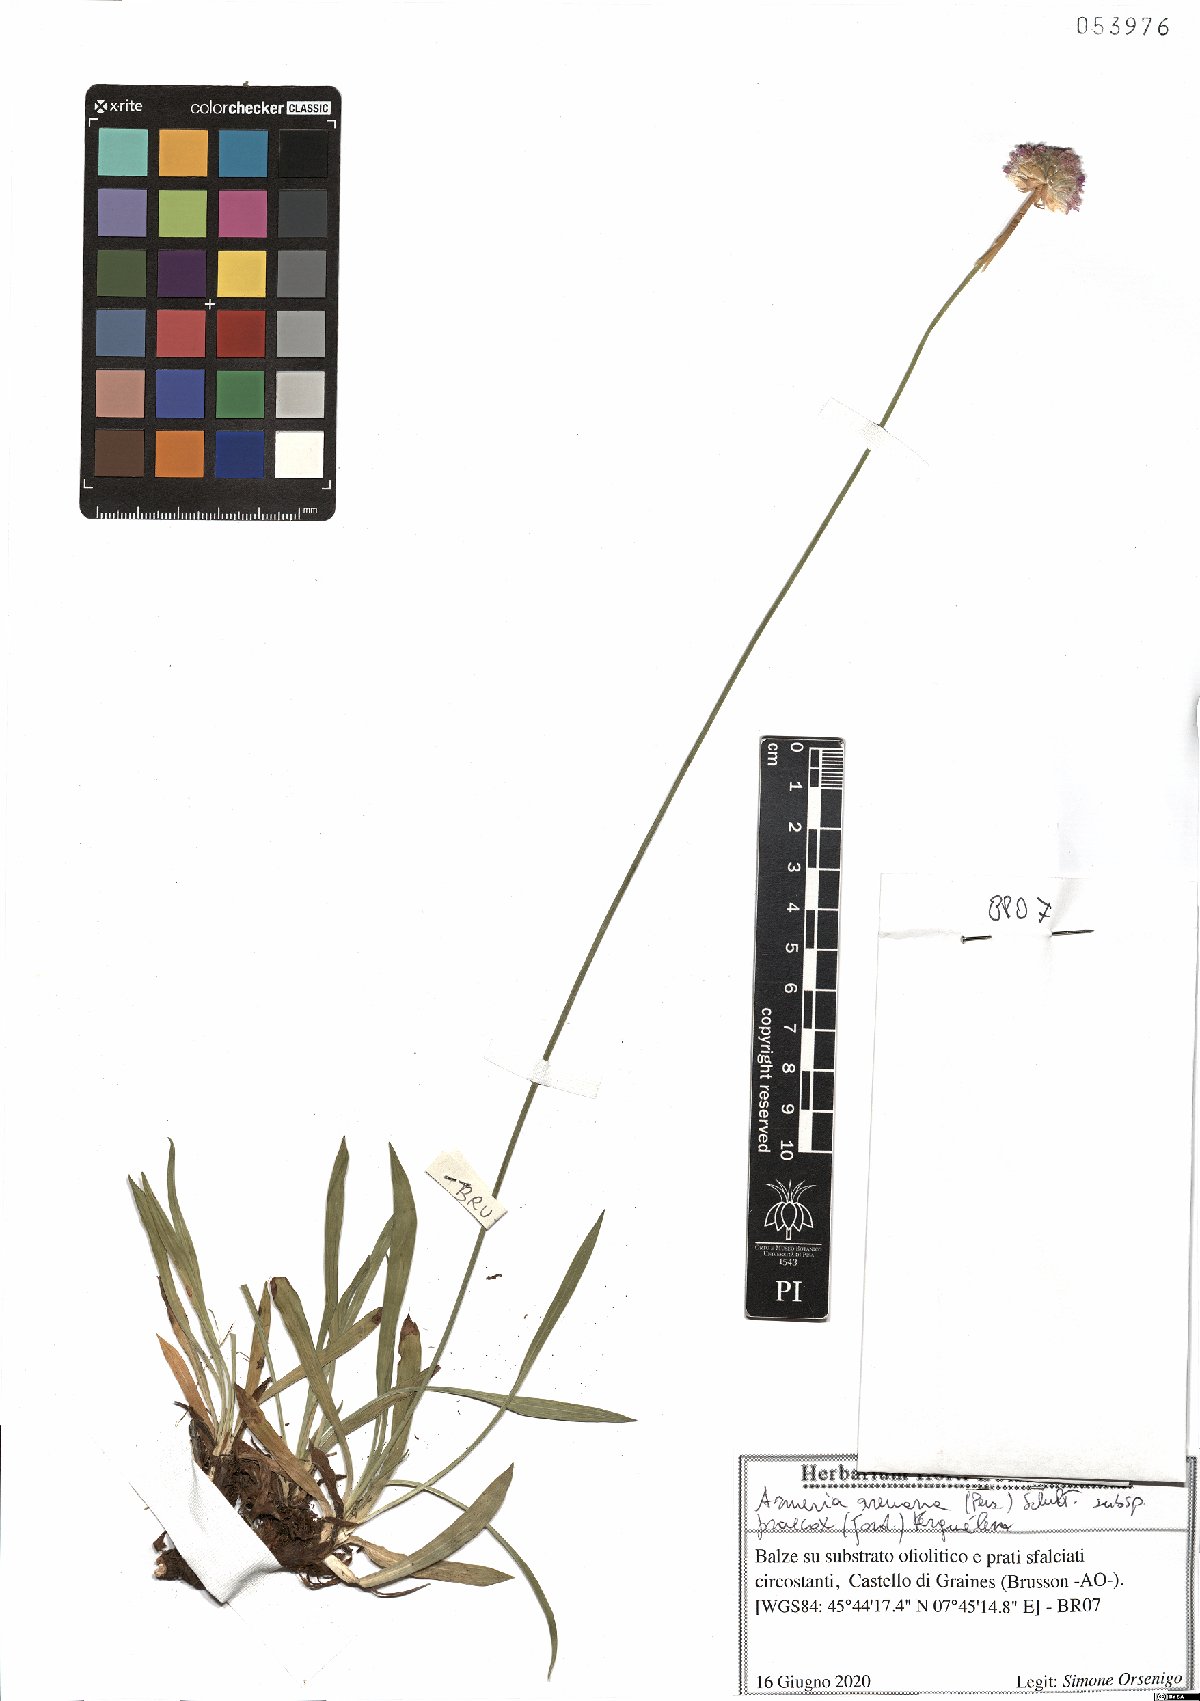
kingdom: Plantae
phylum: Tracheophyta
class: Magnoliopsida
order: Caryophyllales
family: Plumbaginaceae
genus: Armeria
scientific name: Armeria arenaria
